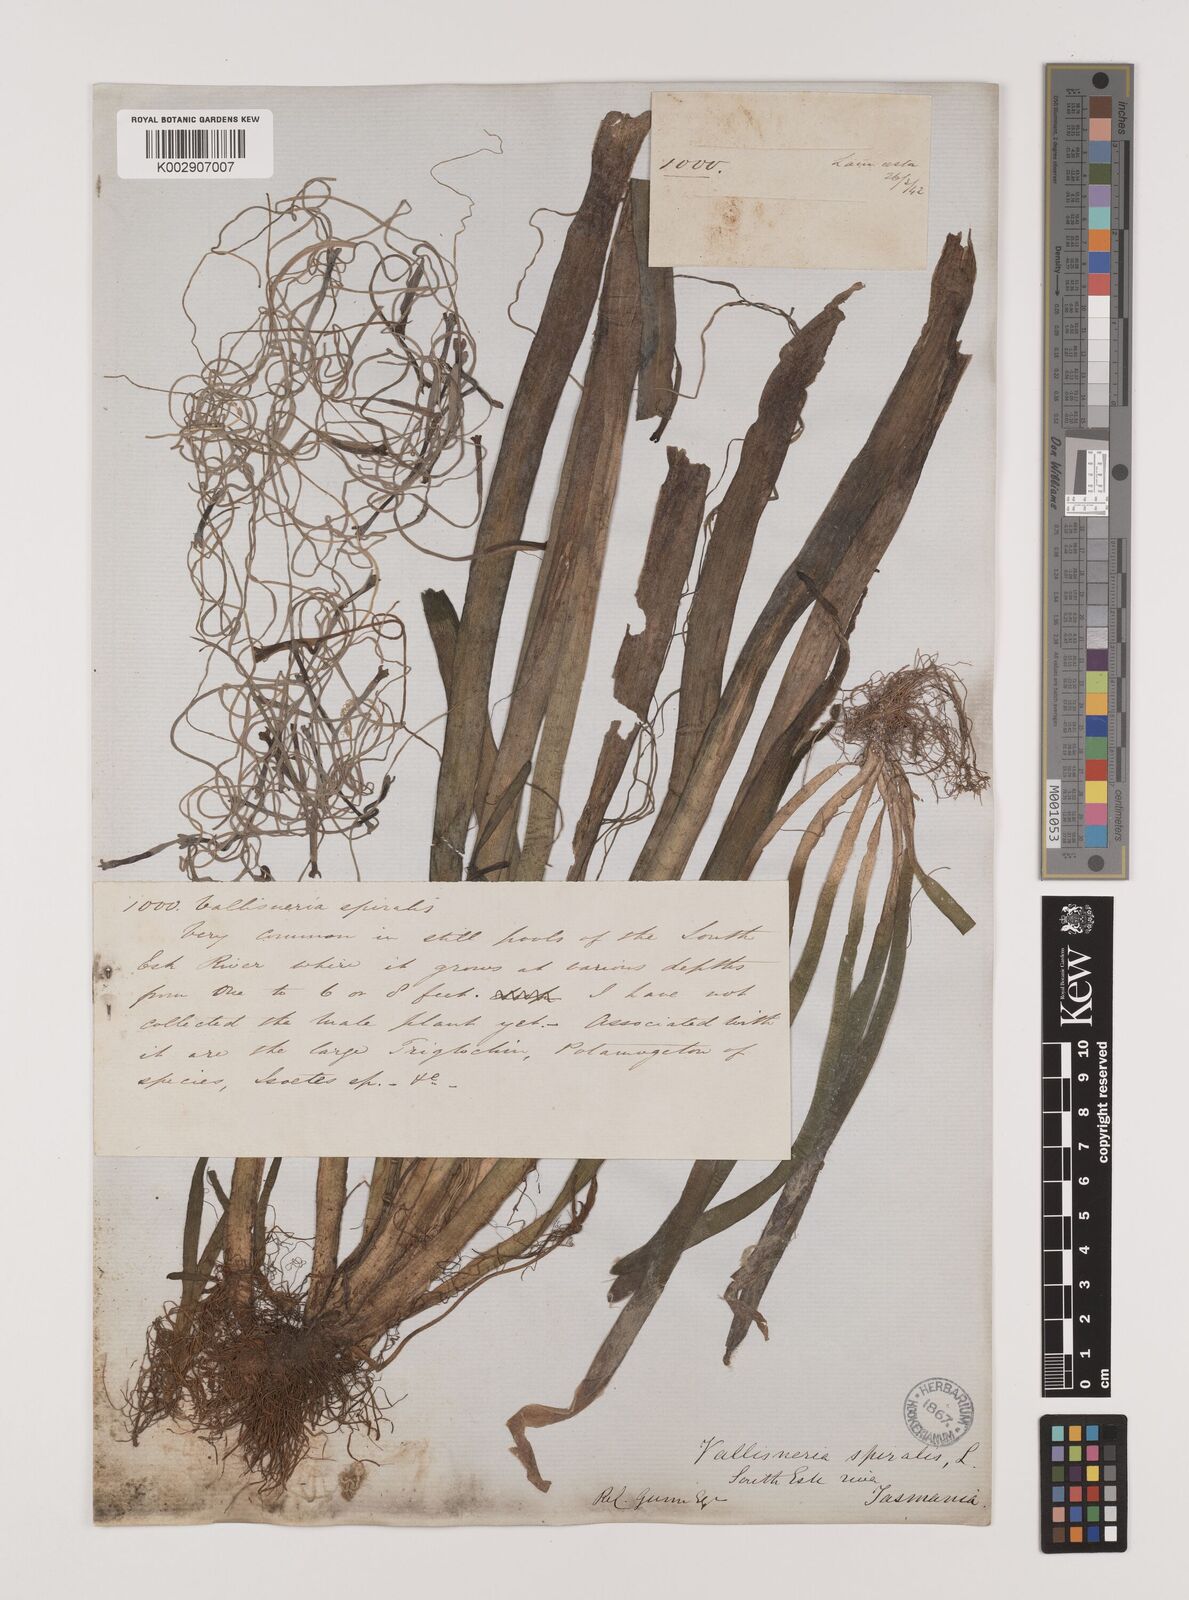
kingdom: Plantae
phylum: Tracheophyta
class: Liliopsida
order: Alismatales
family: Hydrocharitaceae
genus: Vallisneria
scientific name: Vallisneria spiralis
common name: Tapegrass
